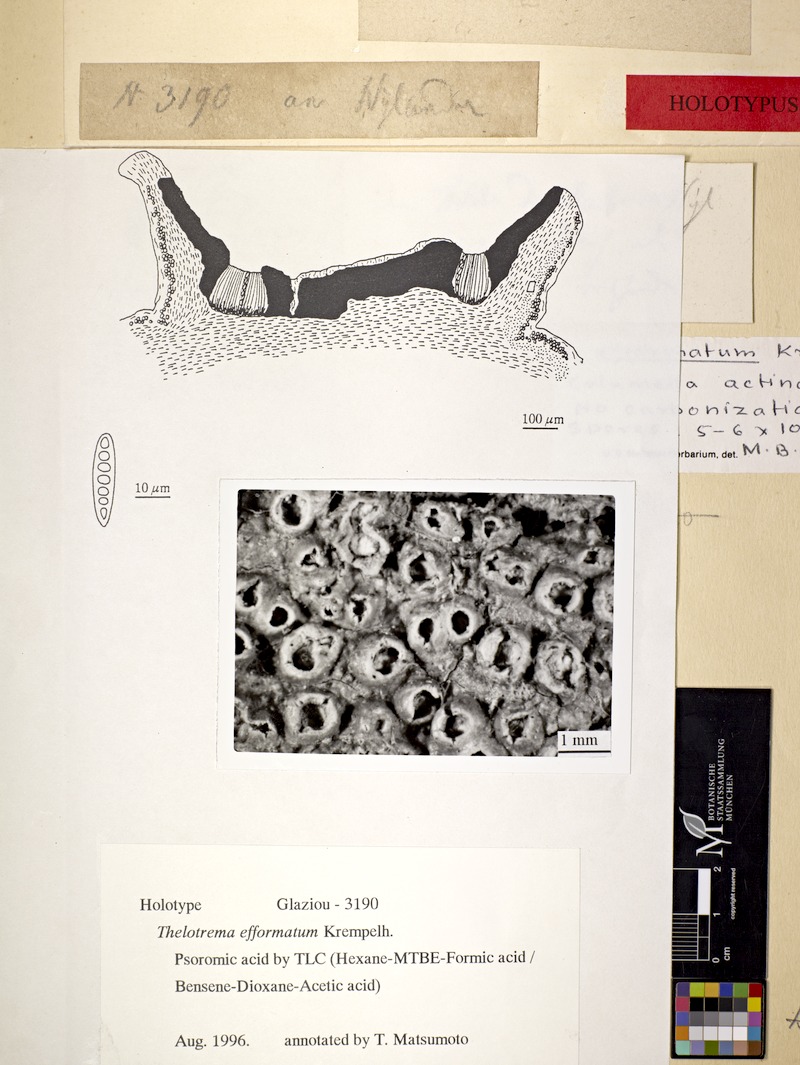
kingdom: Fungi
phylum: Ascomycota
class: Lecanoromycetes
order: Ostropales
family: Graphidaceae
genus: Rhabdodiscus
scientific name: Rhabdodiscus granulosus
